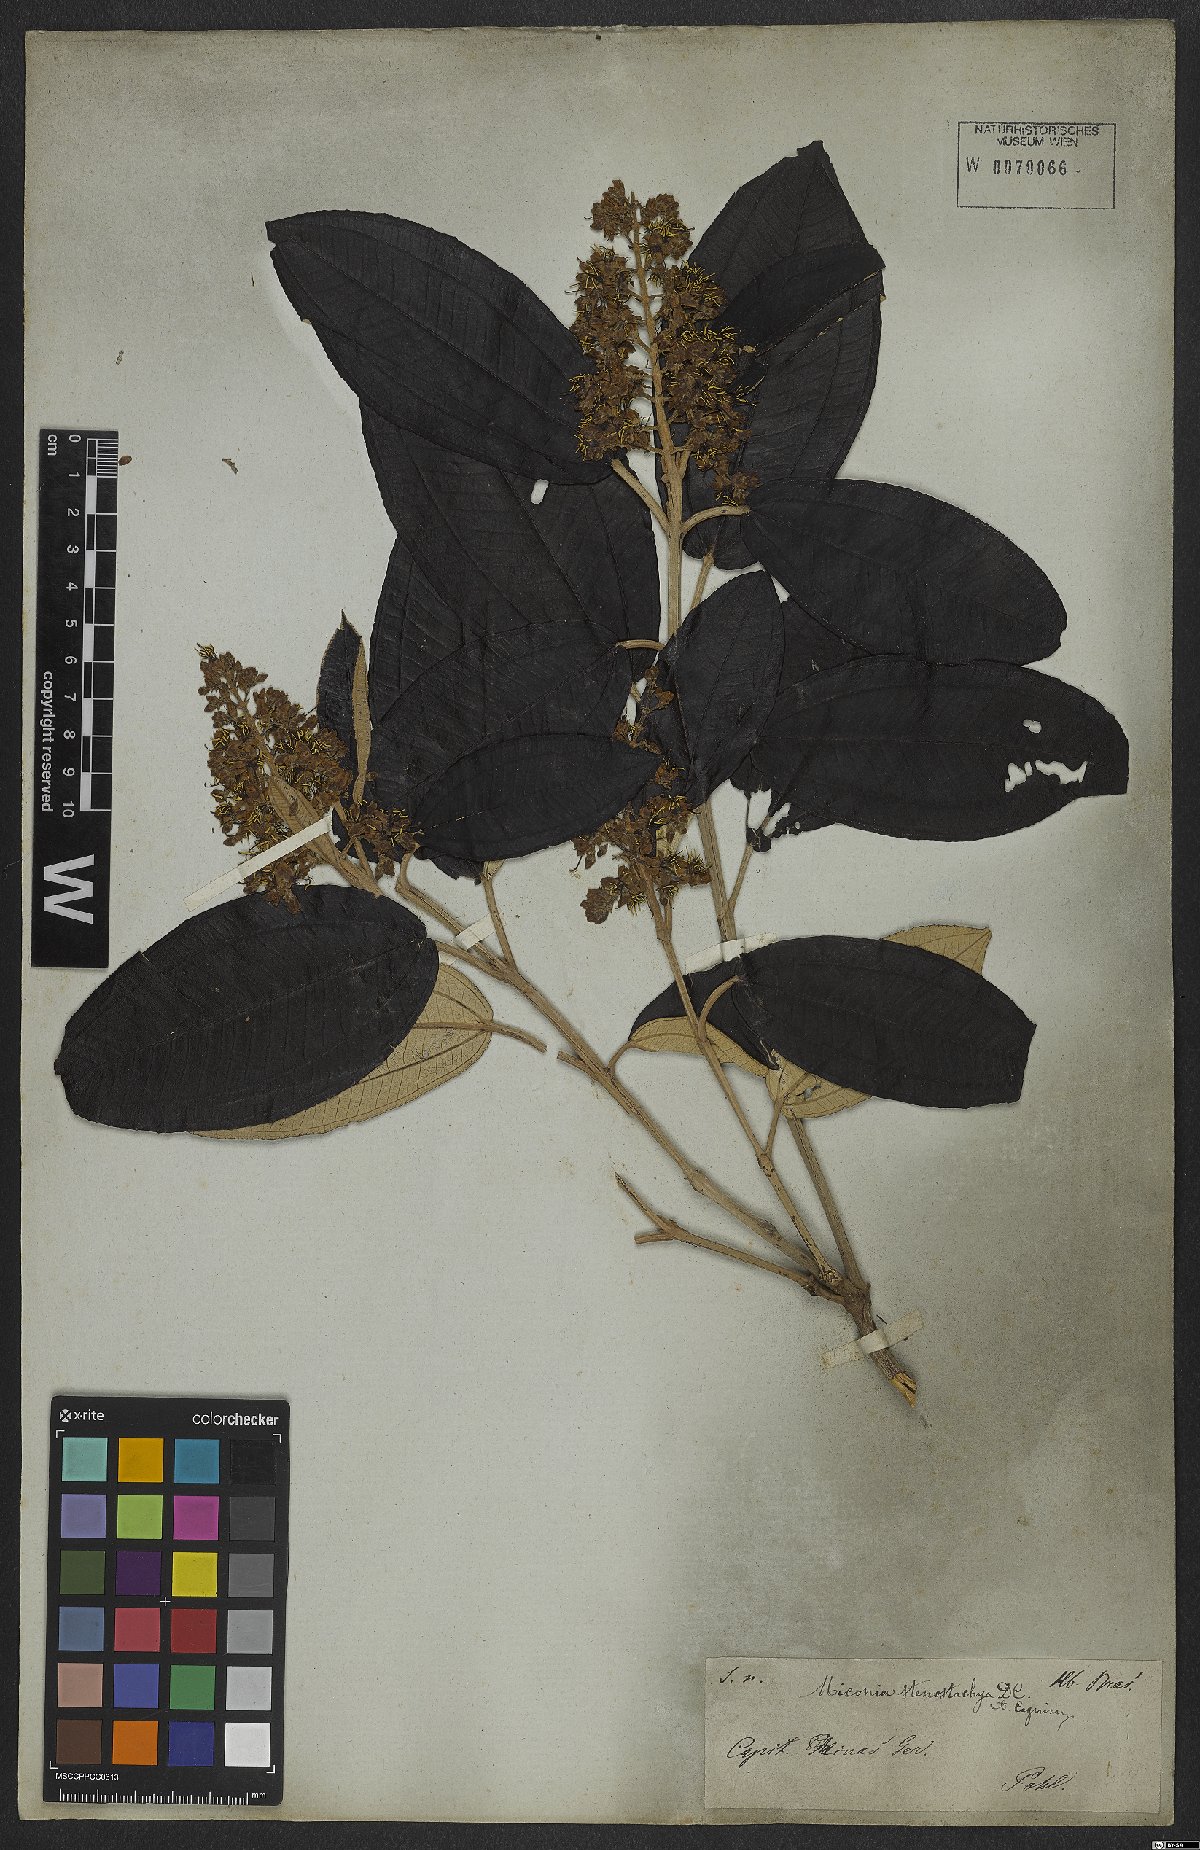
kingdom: Plantae
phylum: Tracheophyta
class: Magnoliopsida
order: Myrtales
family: Melastomataceae
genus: Miconia
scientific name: Miconia stenostachya
